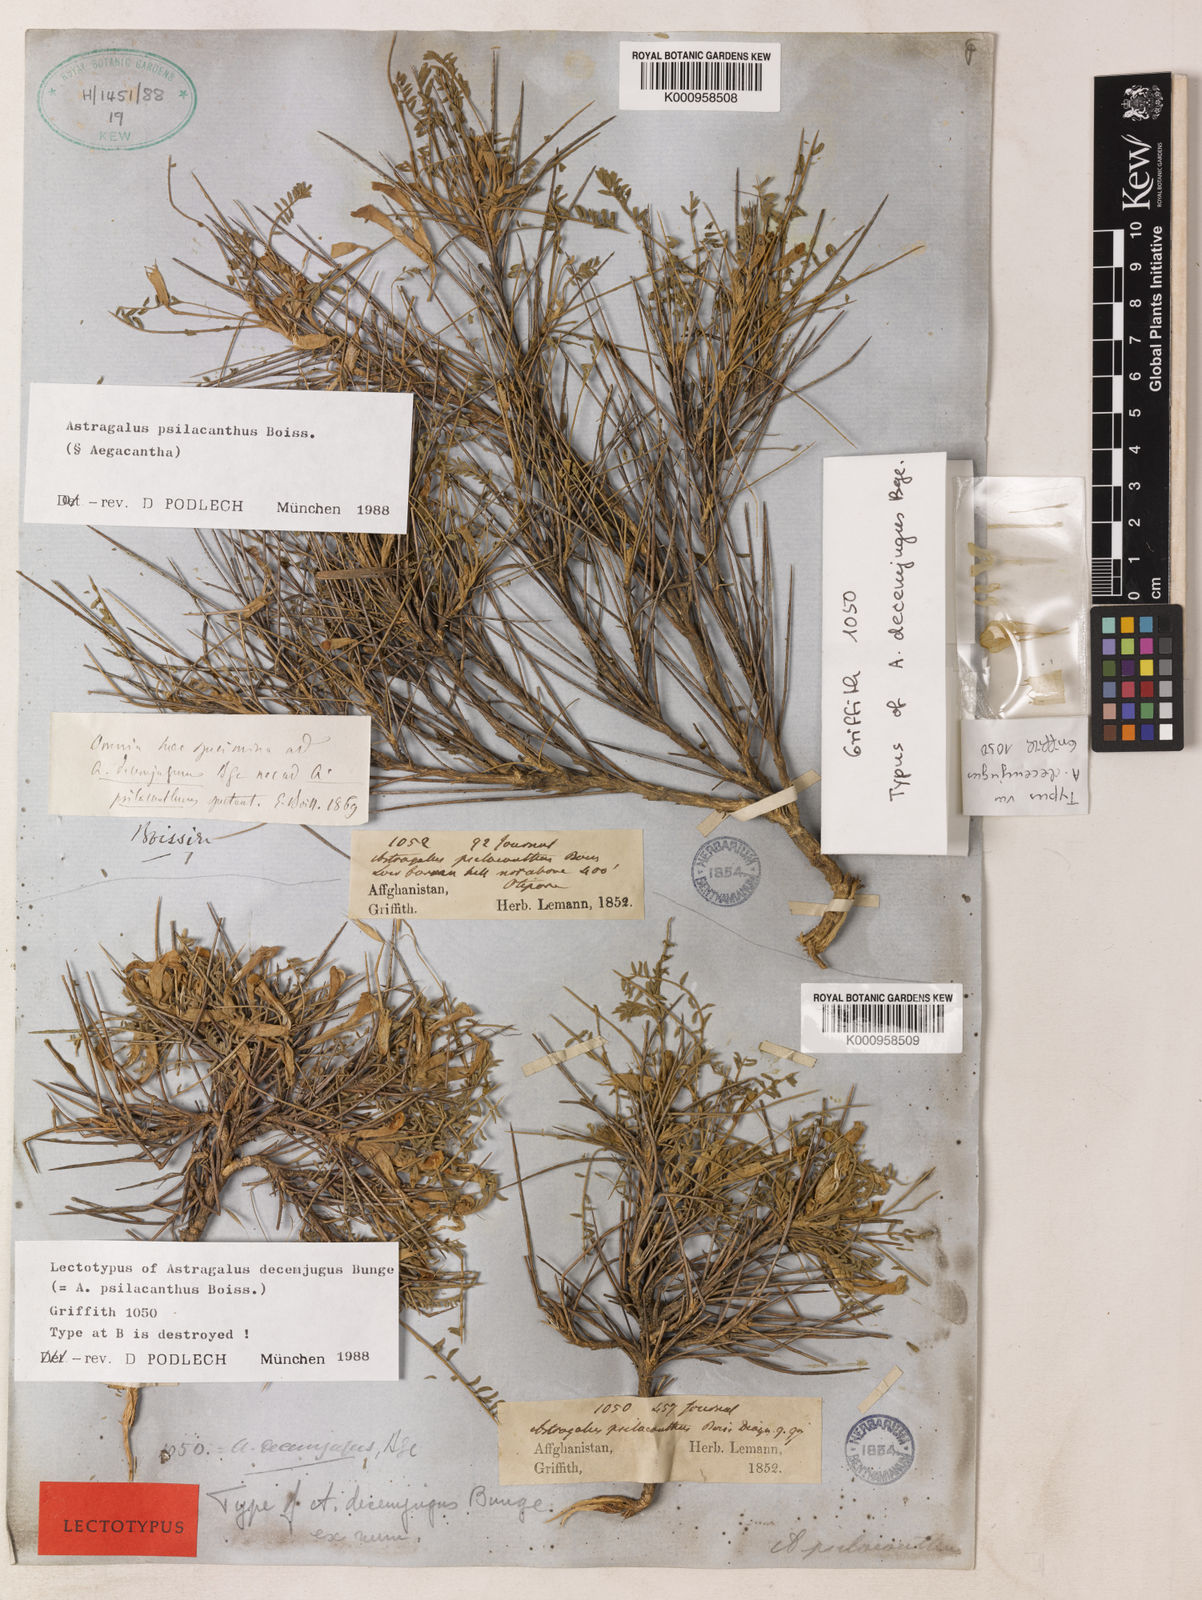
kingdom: Plantae
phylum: Tracheophyta
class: Magnoliopsida
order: Fabales
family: Fabaceae
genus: Astragalus
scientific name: Astragalus psilacanthus
